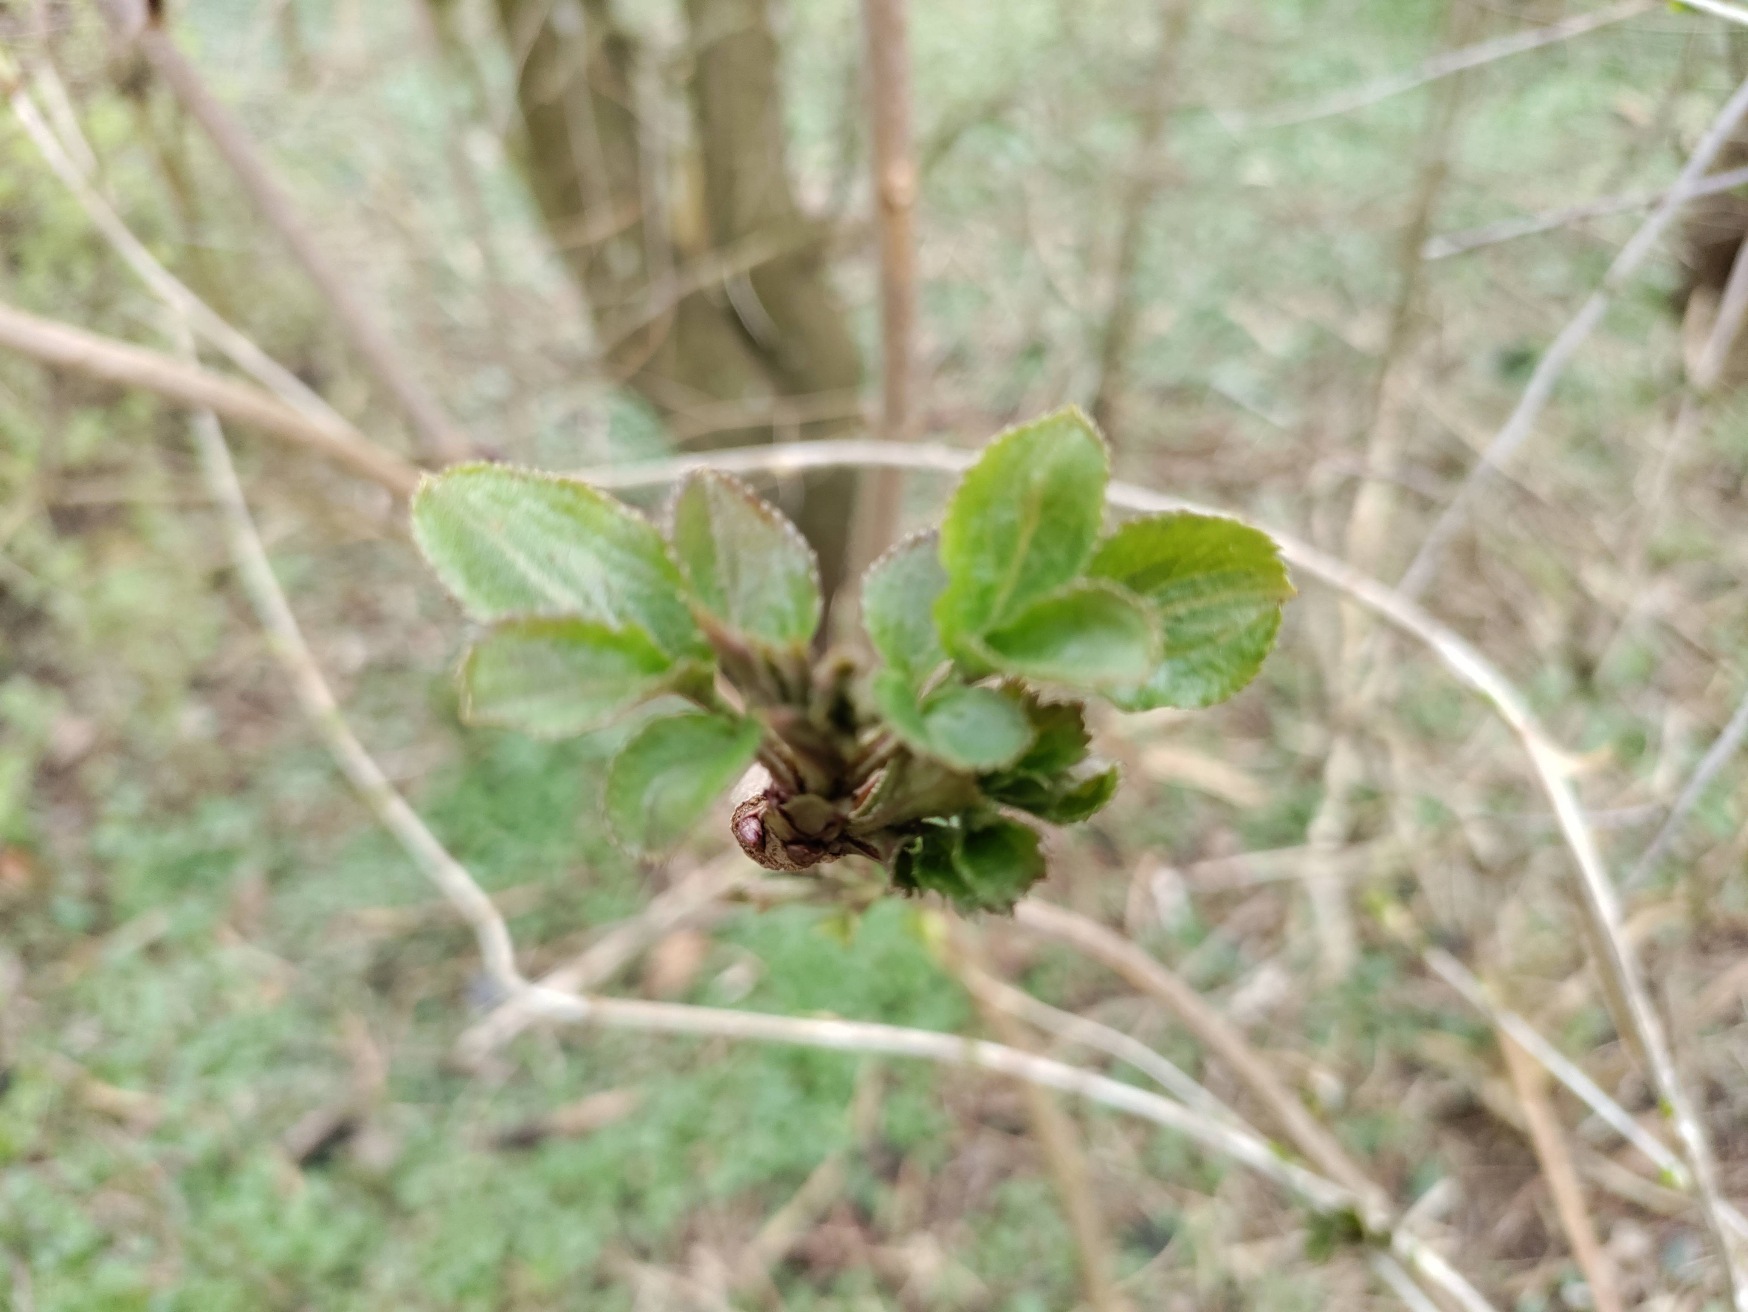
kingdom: Plantae
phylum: Tracheophyta
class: Magnoliopsida
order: Dipsacales
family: Viburnaceae
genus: Sambucus
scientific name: Sambucus nigra
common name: Almindelig hyld
